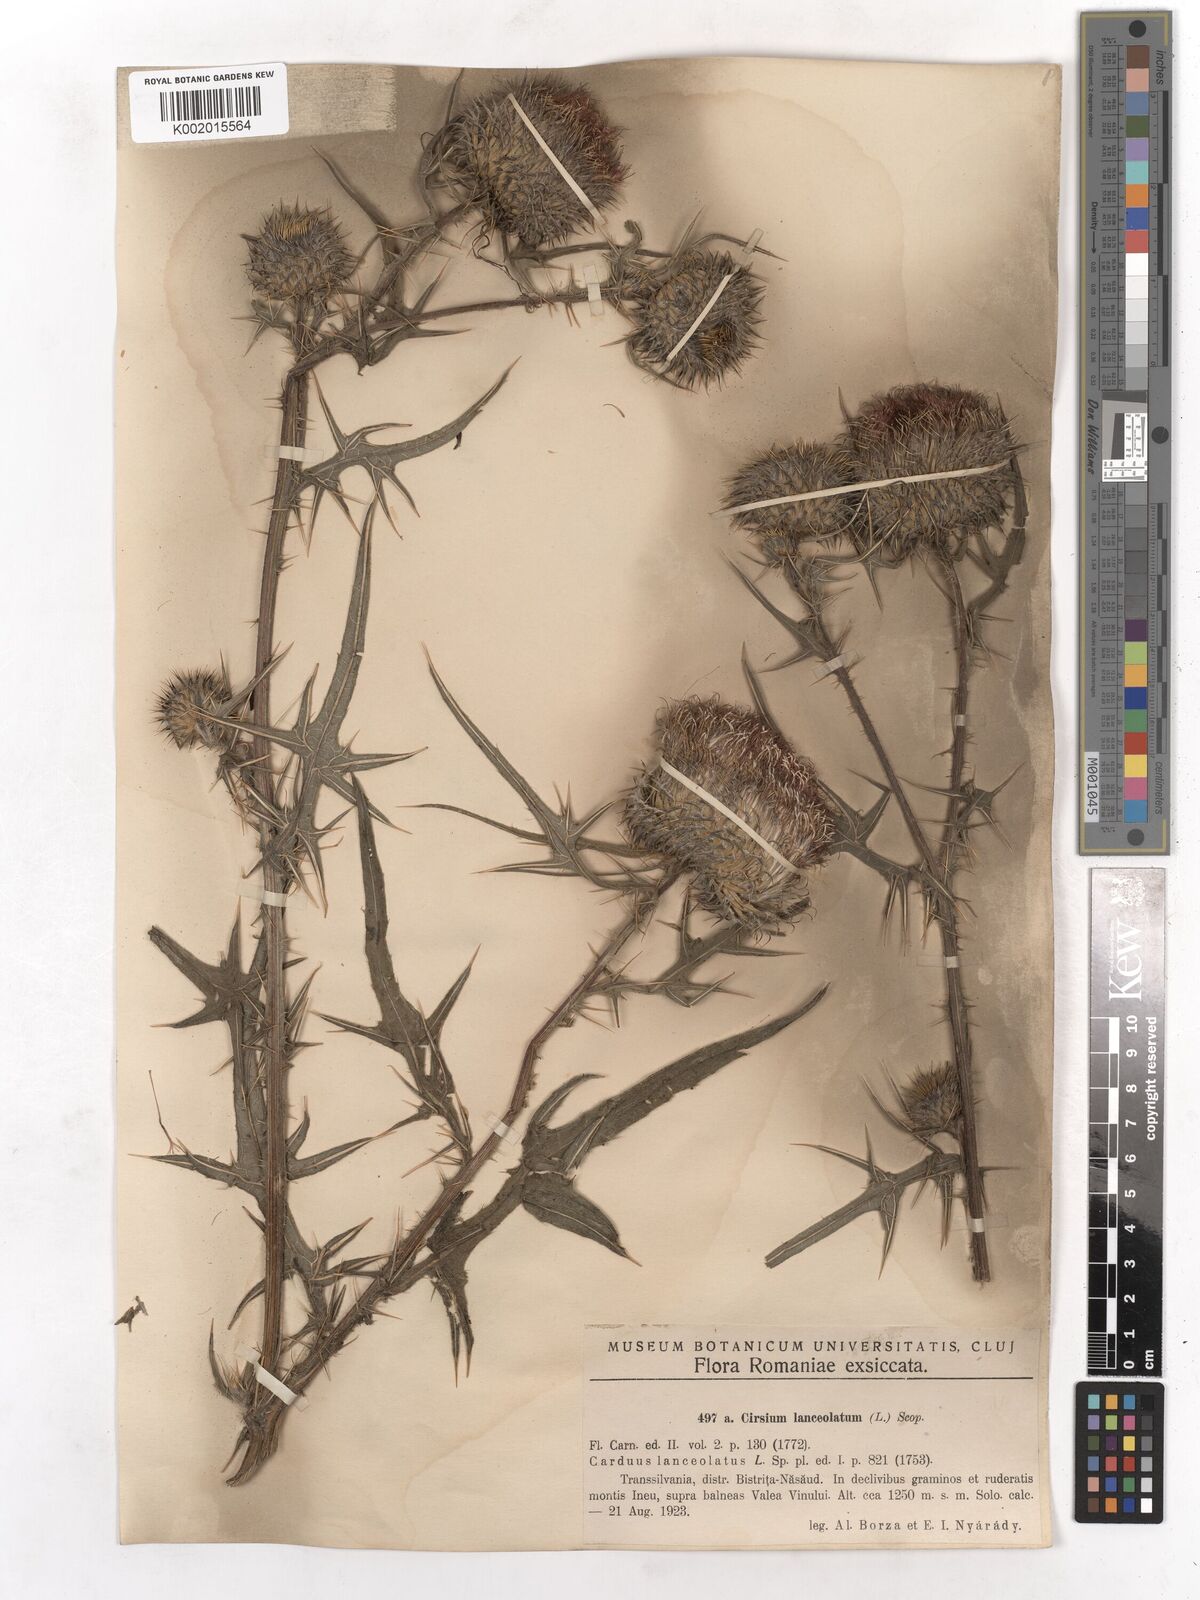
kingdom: Plantae
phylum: Tracheophyta
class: Magnoliopsida
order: Asterales
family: Asteraceae
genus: Cirsium
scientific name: Cirsium vulgare
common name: Bull thistle
